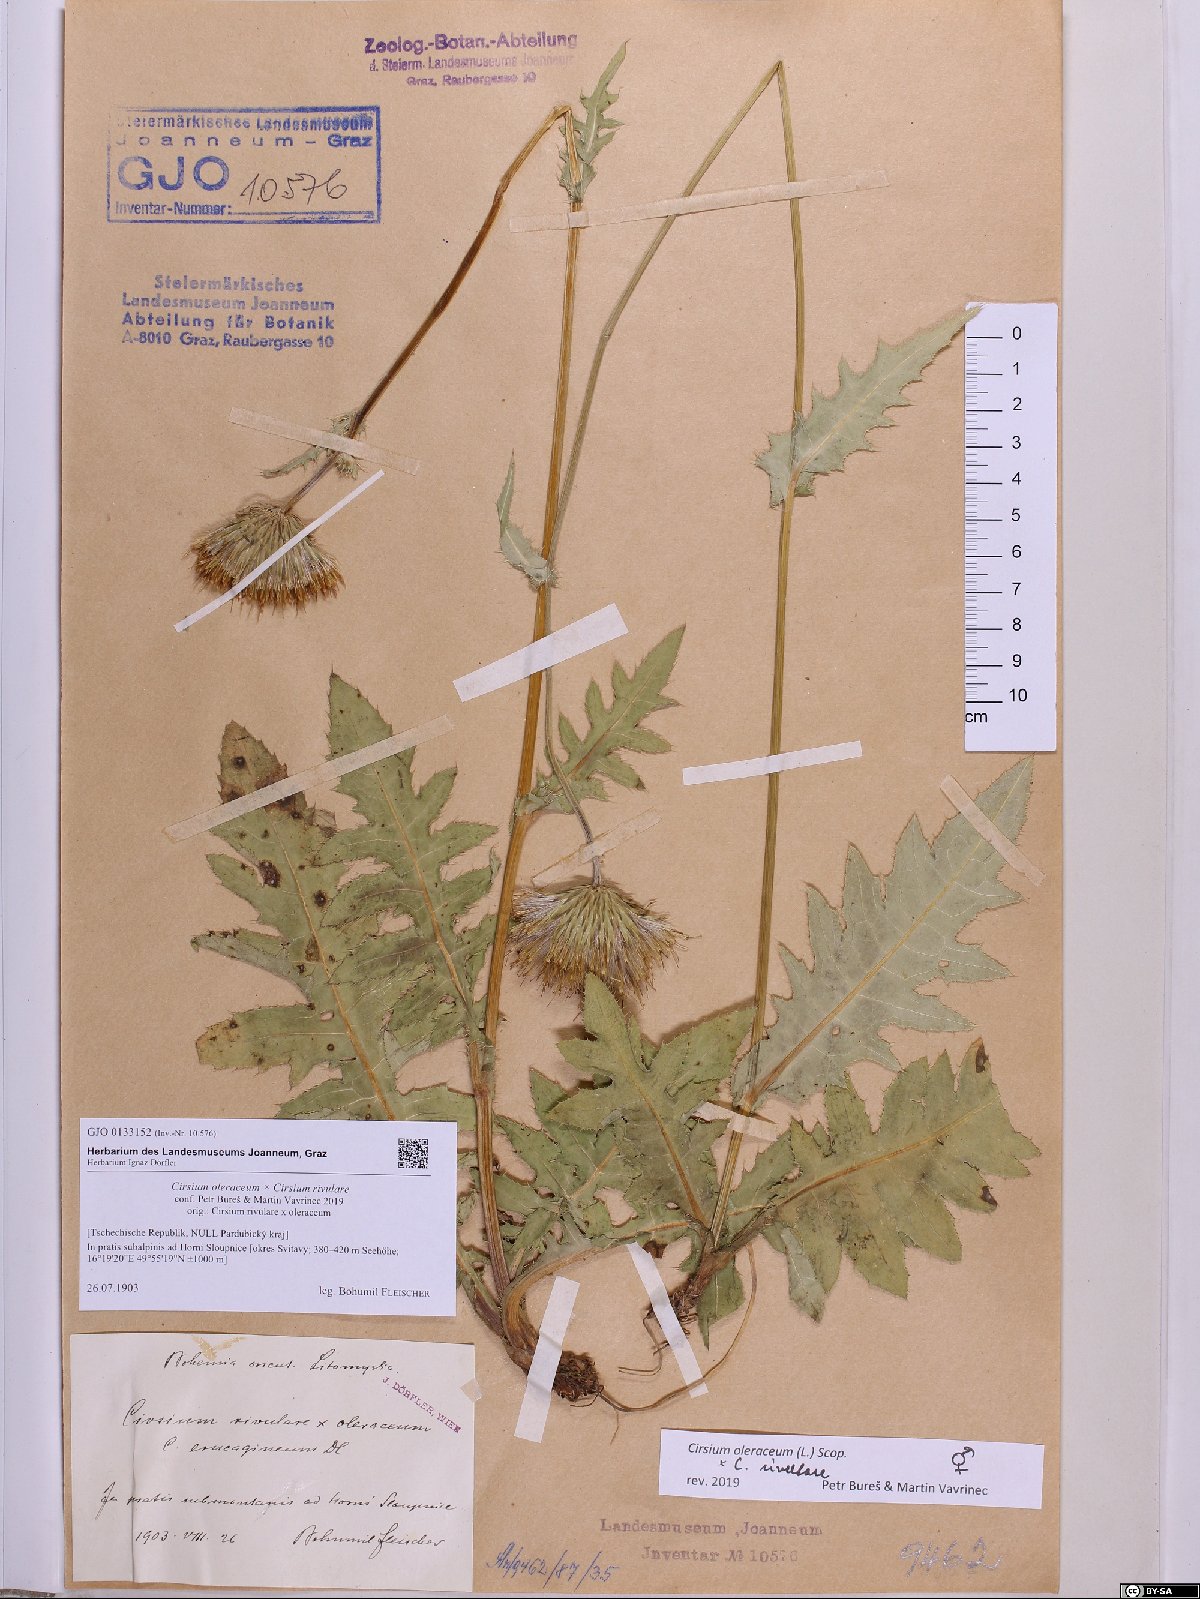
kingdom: Plantae
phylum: Tracheophyta
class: Magnoliopsida
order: Asterales
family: Asteraceae
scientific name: Asteraceae
